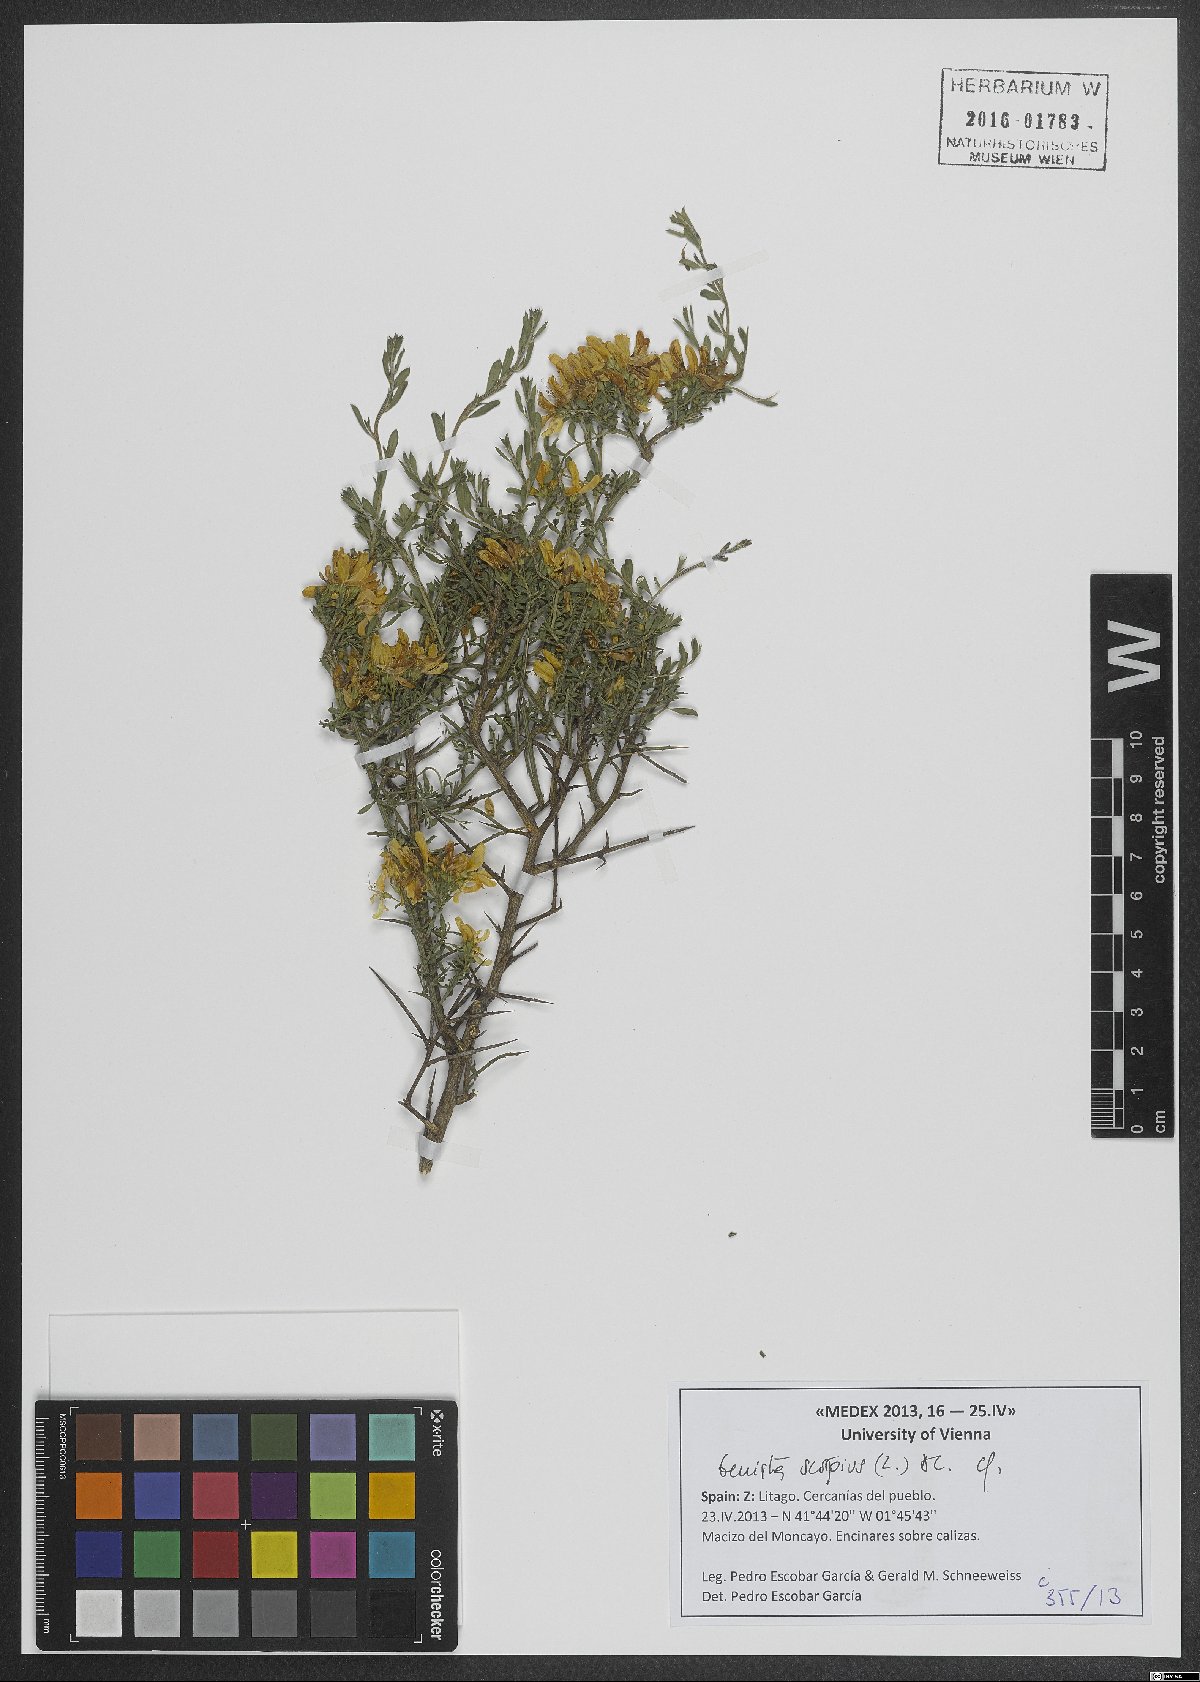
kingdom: Plantae
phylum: Tracheophyta
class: Magnoliopsida
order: Fabales
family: Fabaceae
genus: Genista
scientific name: Genista scorpius
